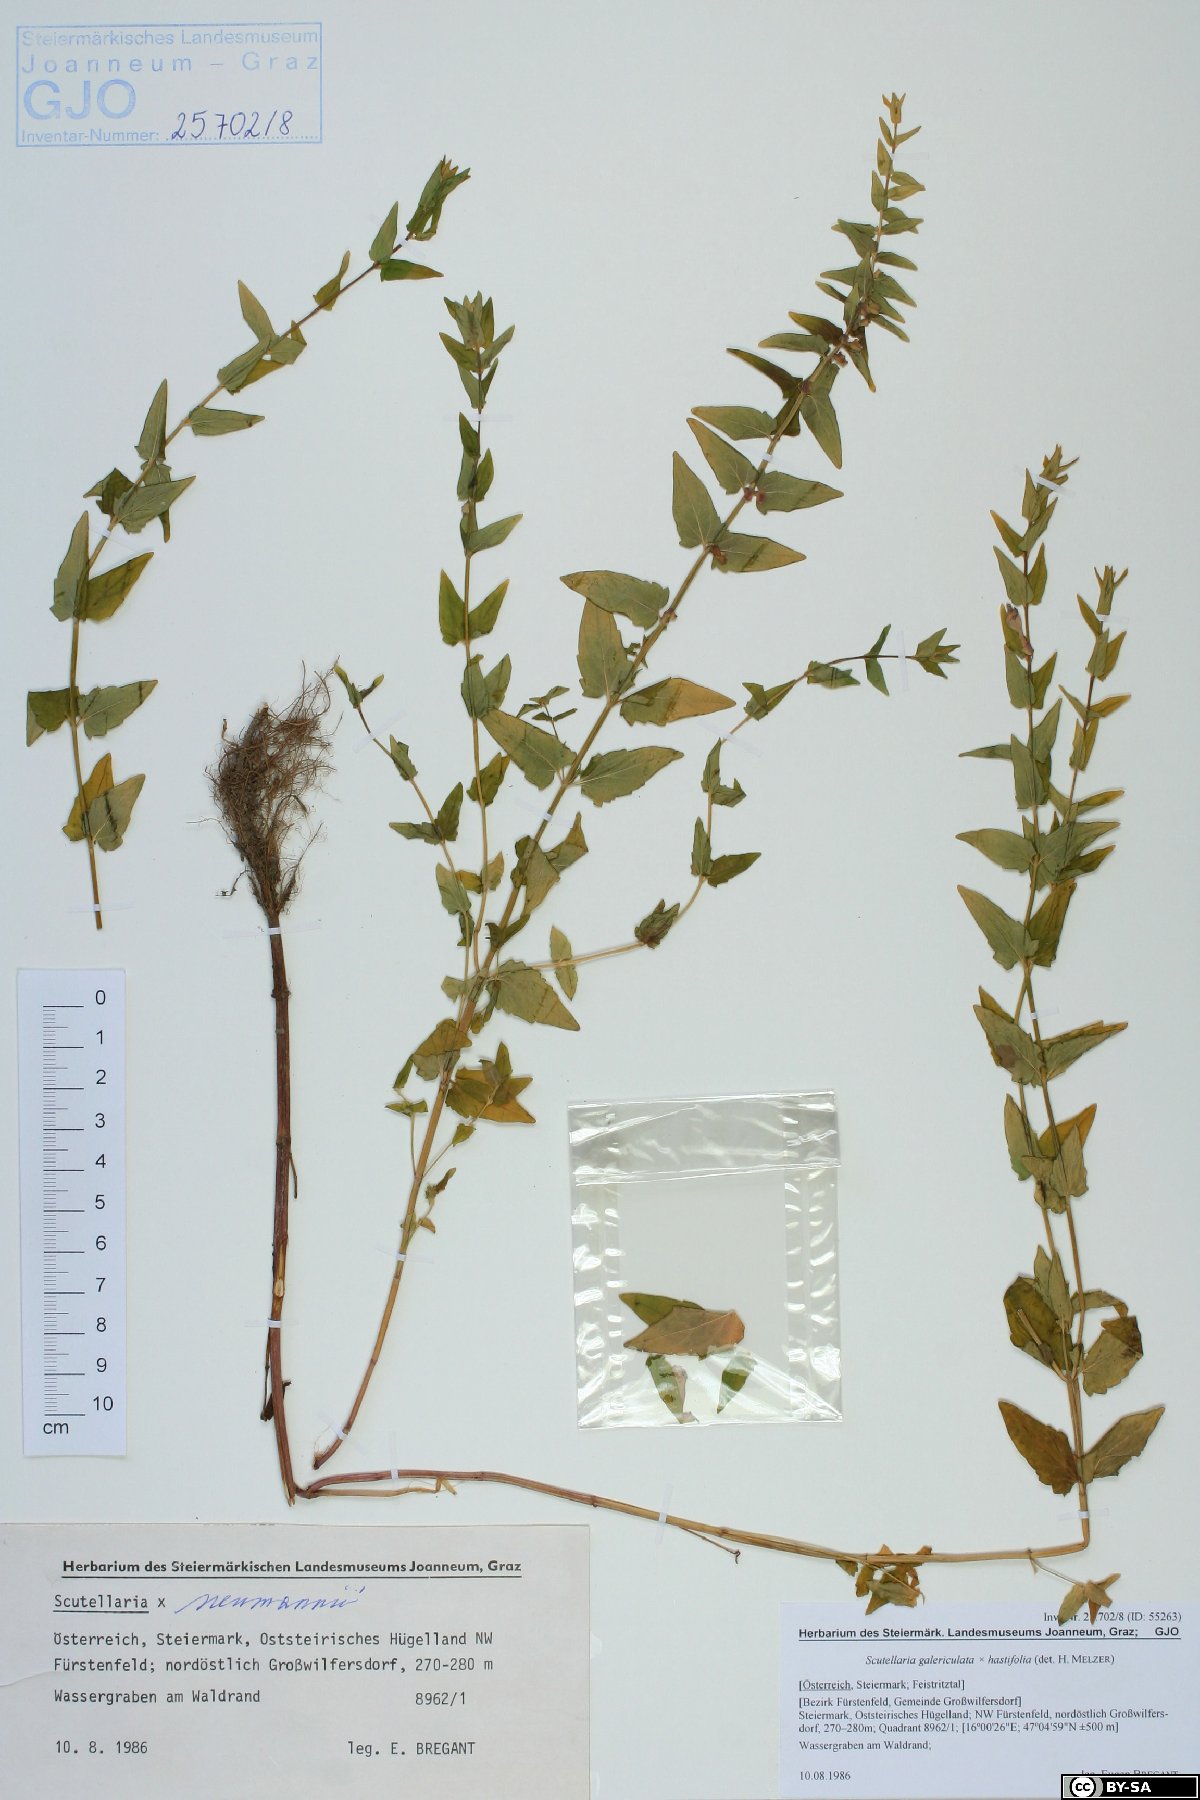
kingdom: Plantae
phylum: Tracheophyta
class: Magnoliopsida
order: Lamiales
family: Lamiaceae
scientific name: Lamiaceae
